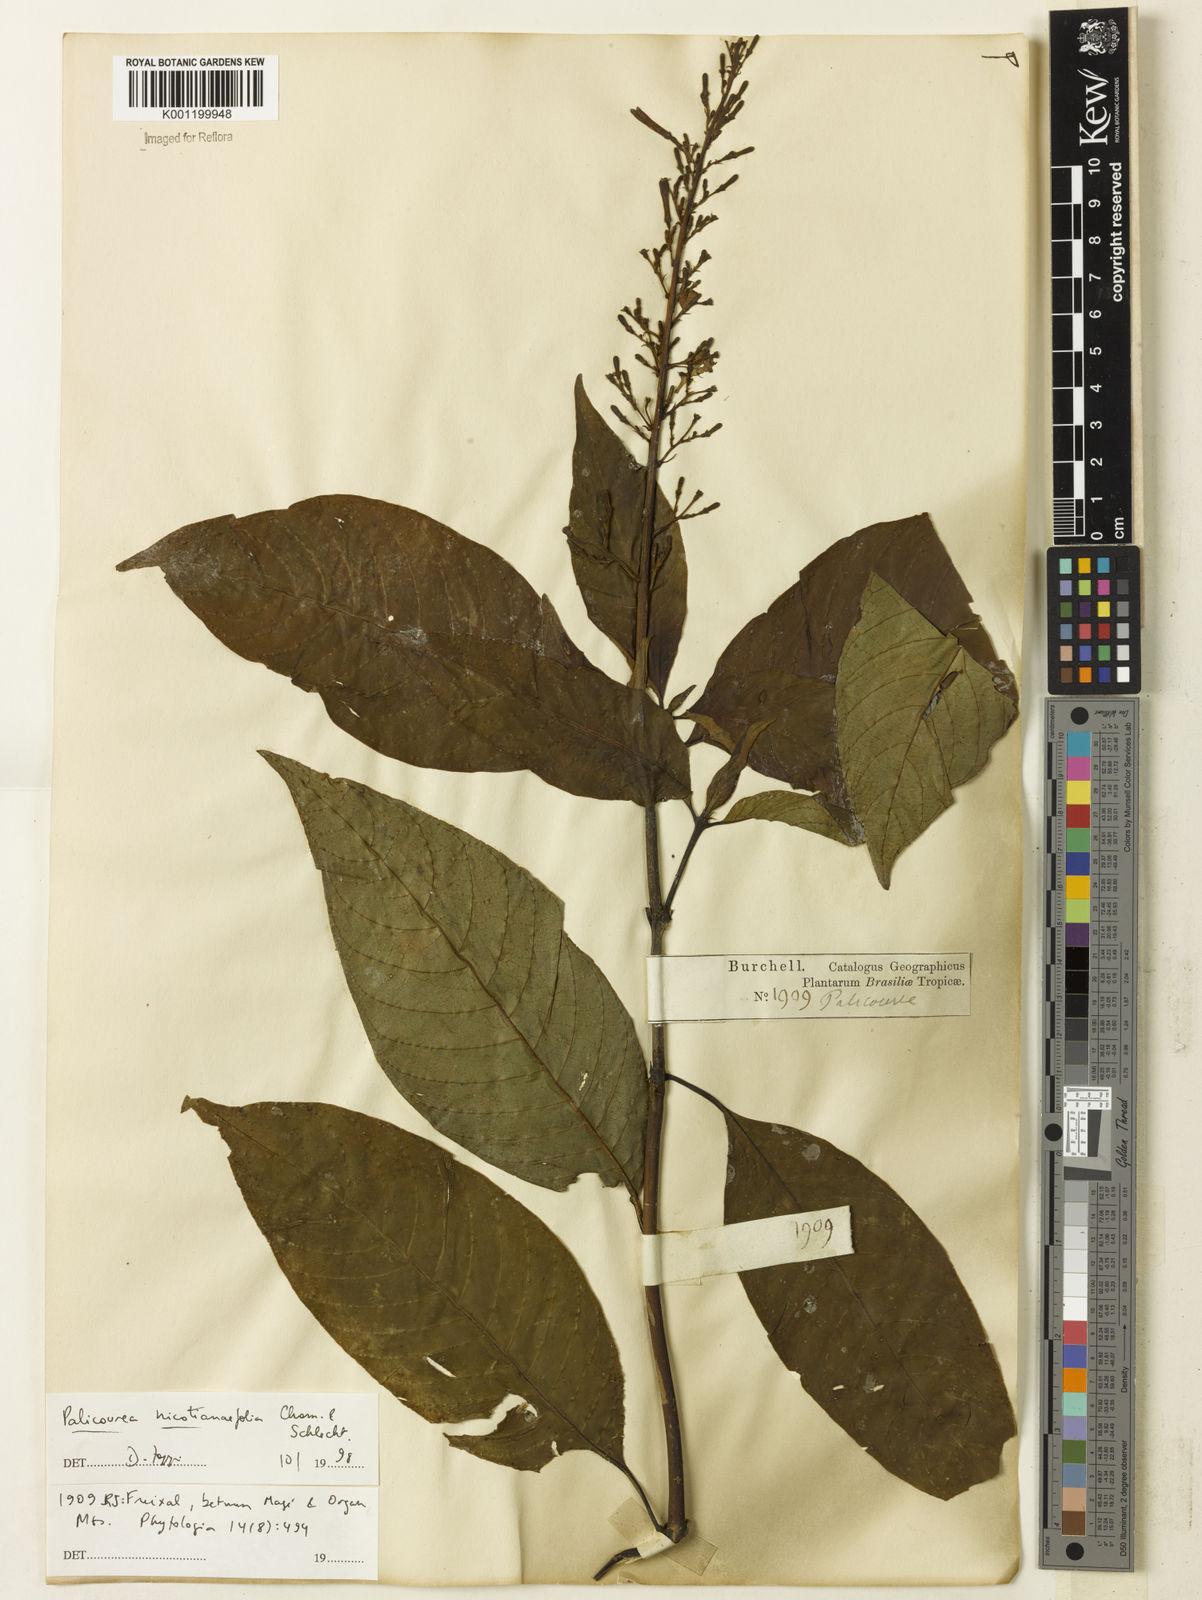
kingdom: Plantae
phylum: Tracheophyta
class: Magnoliopsida
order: Gentianales
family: Rubiaceae
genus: Palicourea
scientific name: Palicourea macrobotrys
